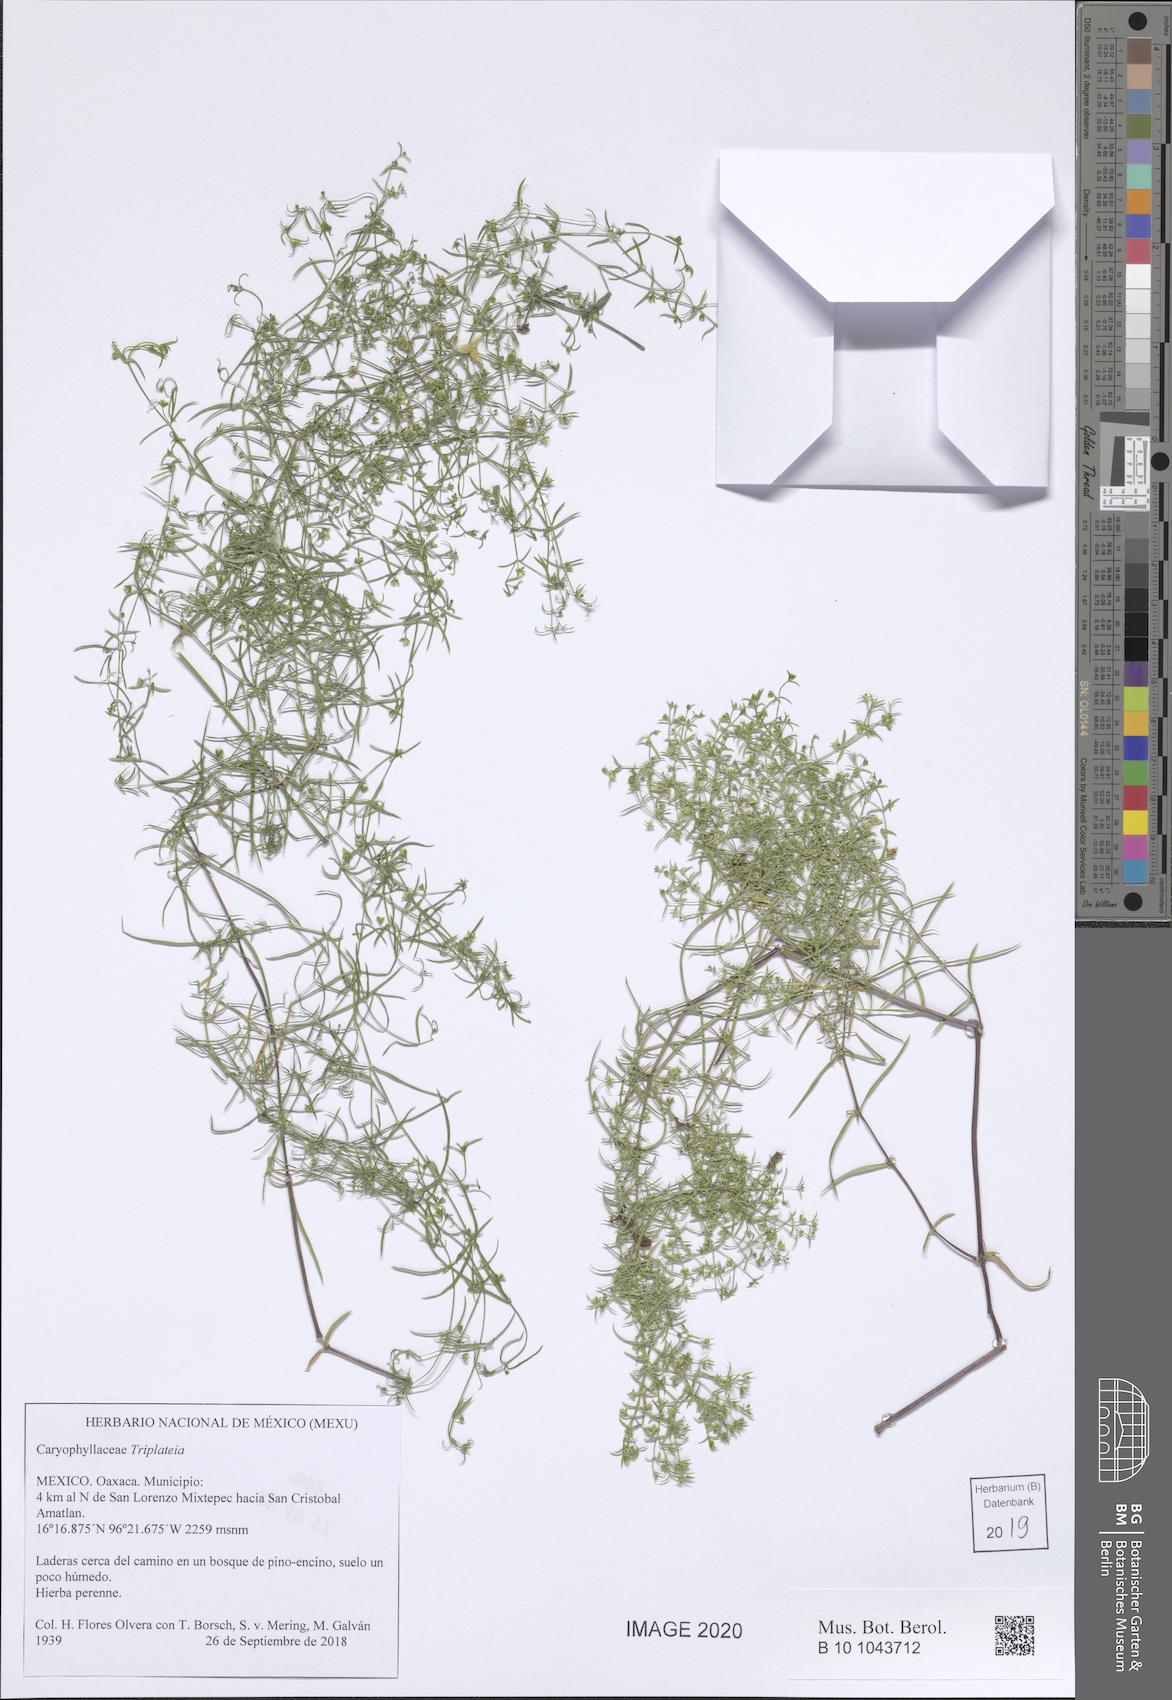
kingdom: Plantae
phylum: Tracheophyta
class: Magnoliopsida
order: Caryophyllales
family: Caryophyllaceae
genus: Triplateia
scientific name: Triplateia
